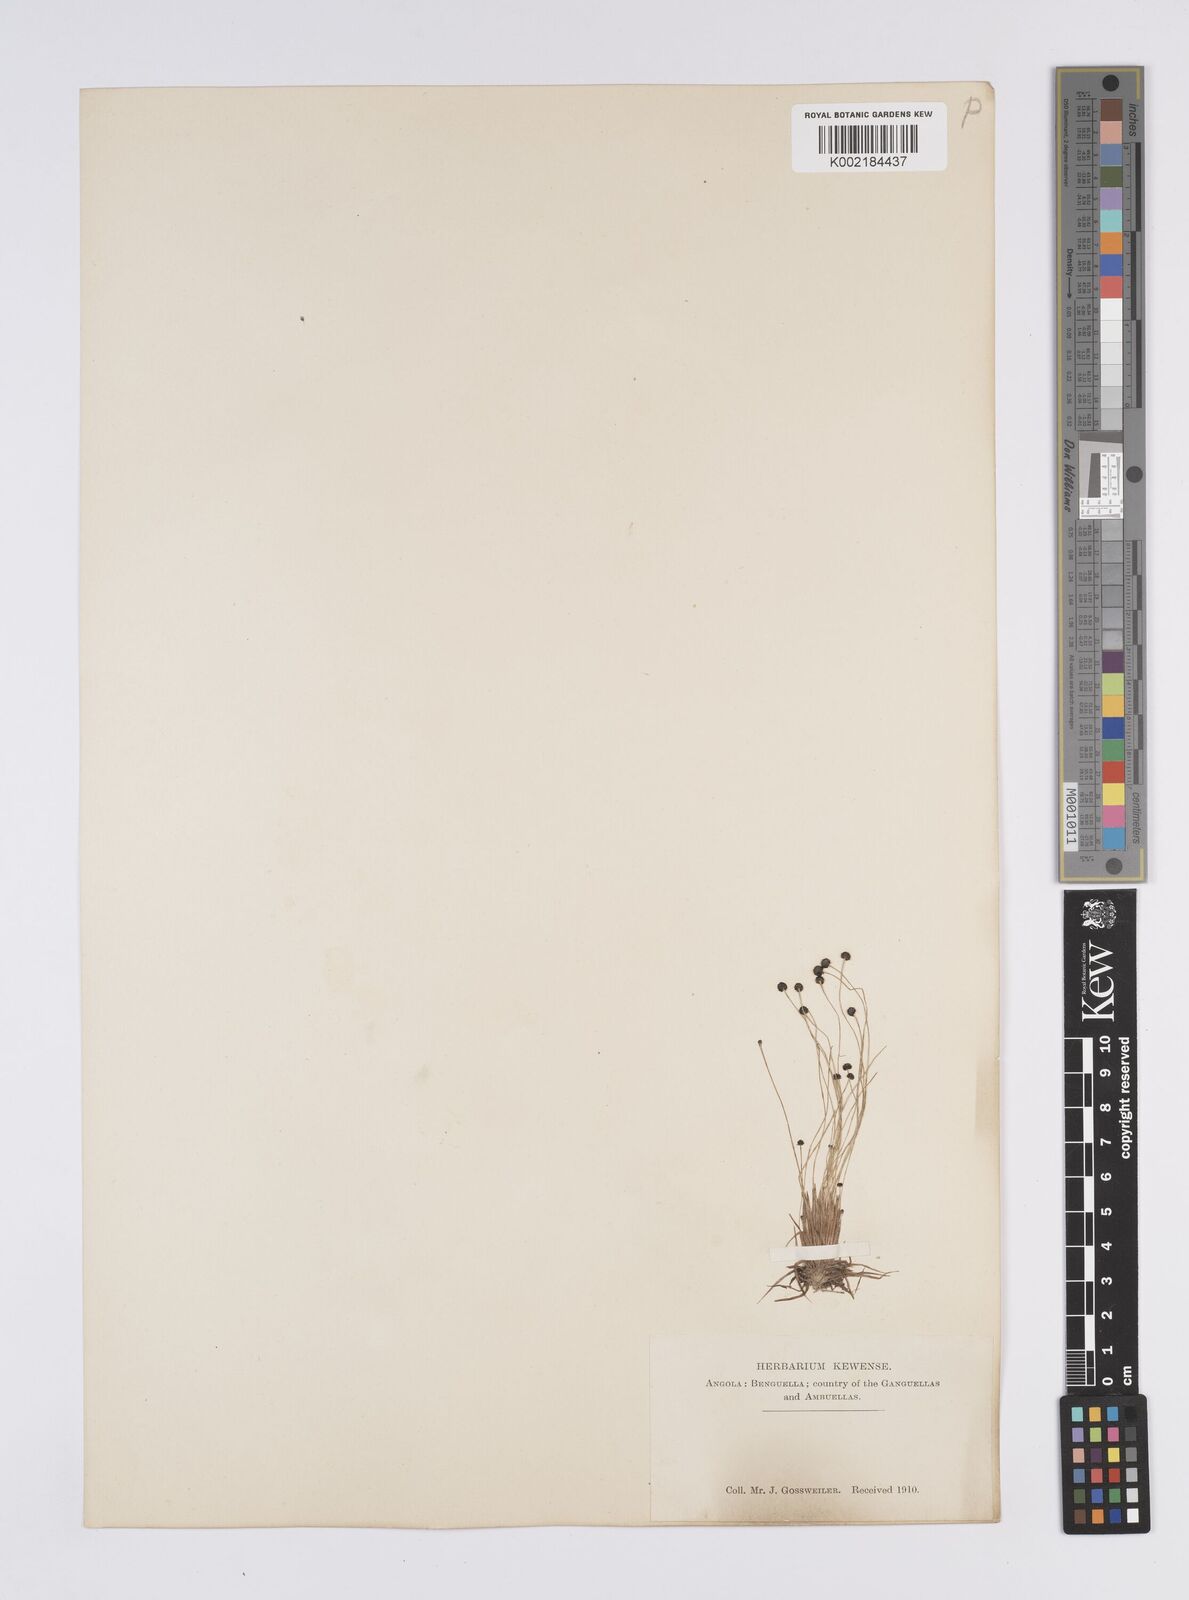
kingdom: Plantae
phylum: Tracheophyta
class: Liliopsida
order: Poales
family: Eriocaulaceae
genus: Eriocaulon
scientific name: Eriocaulon
